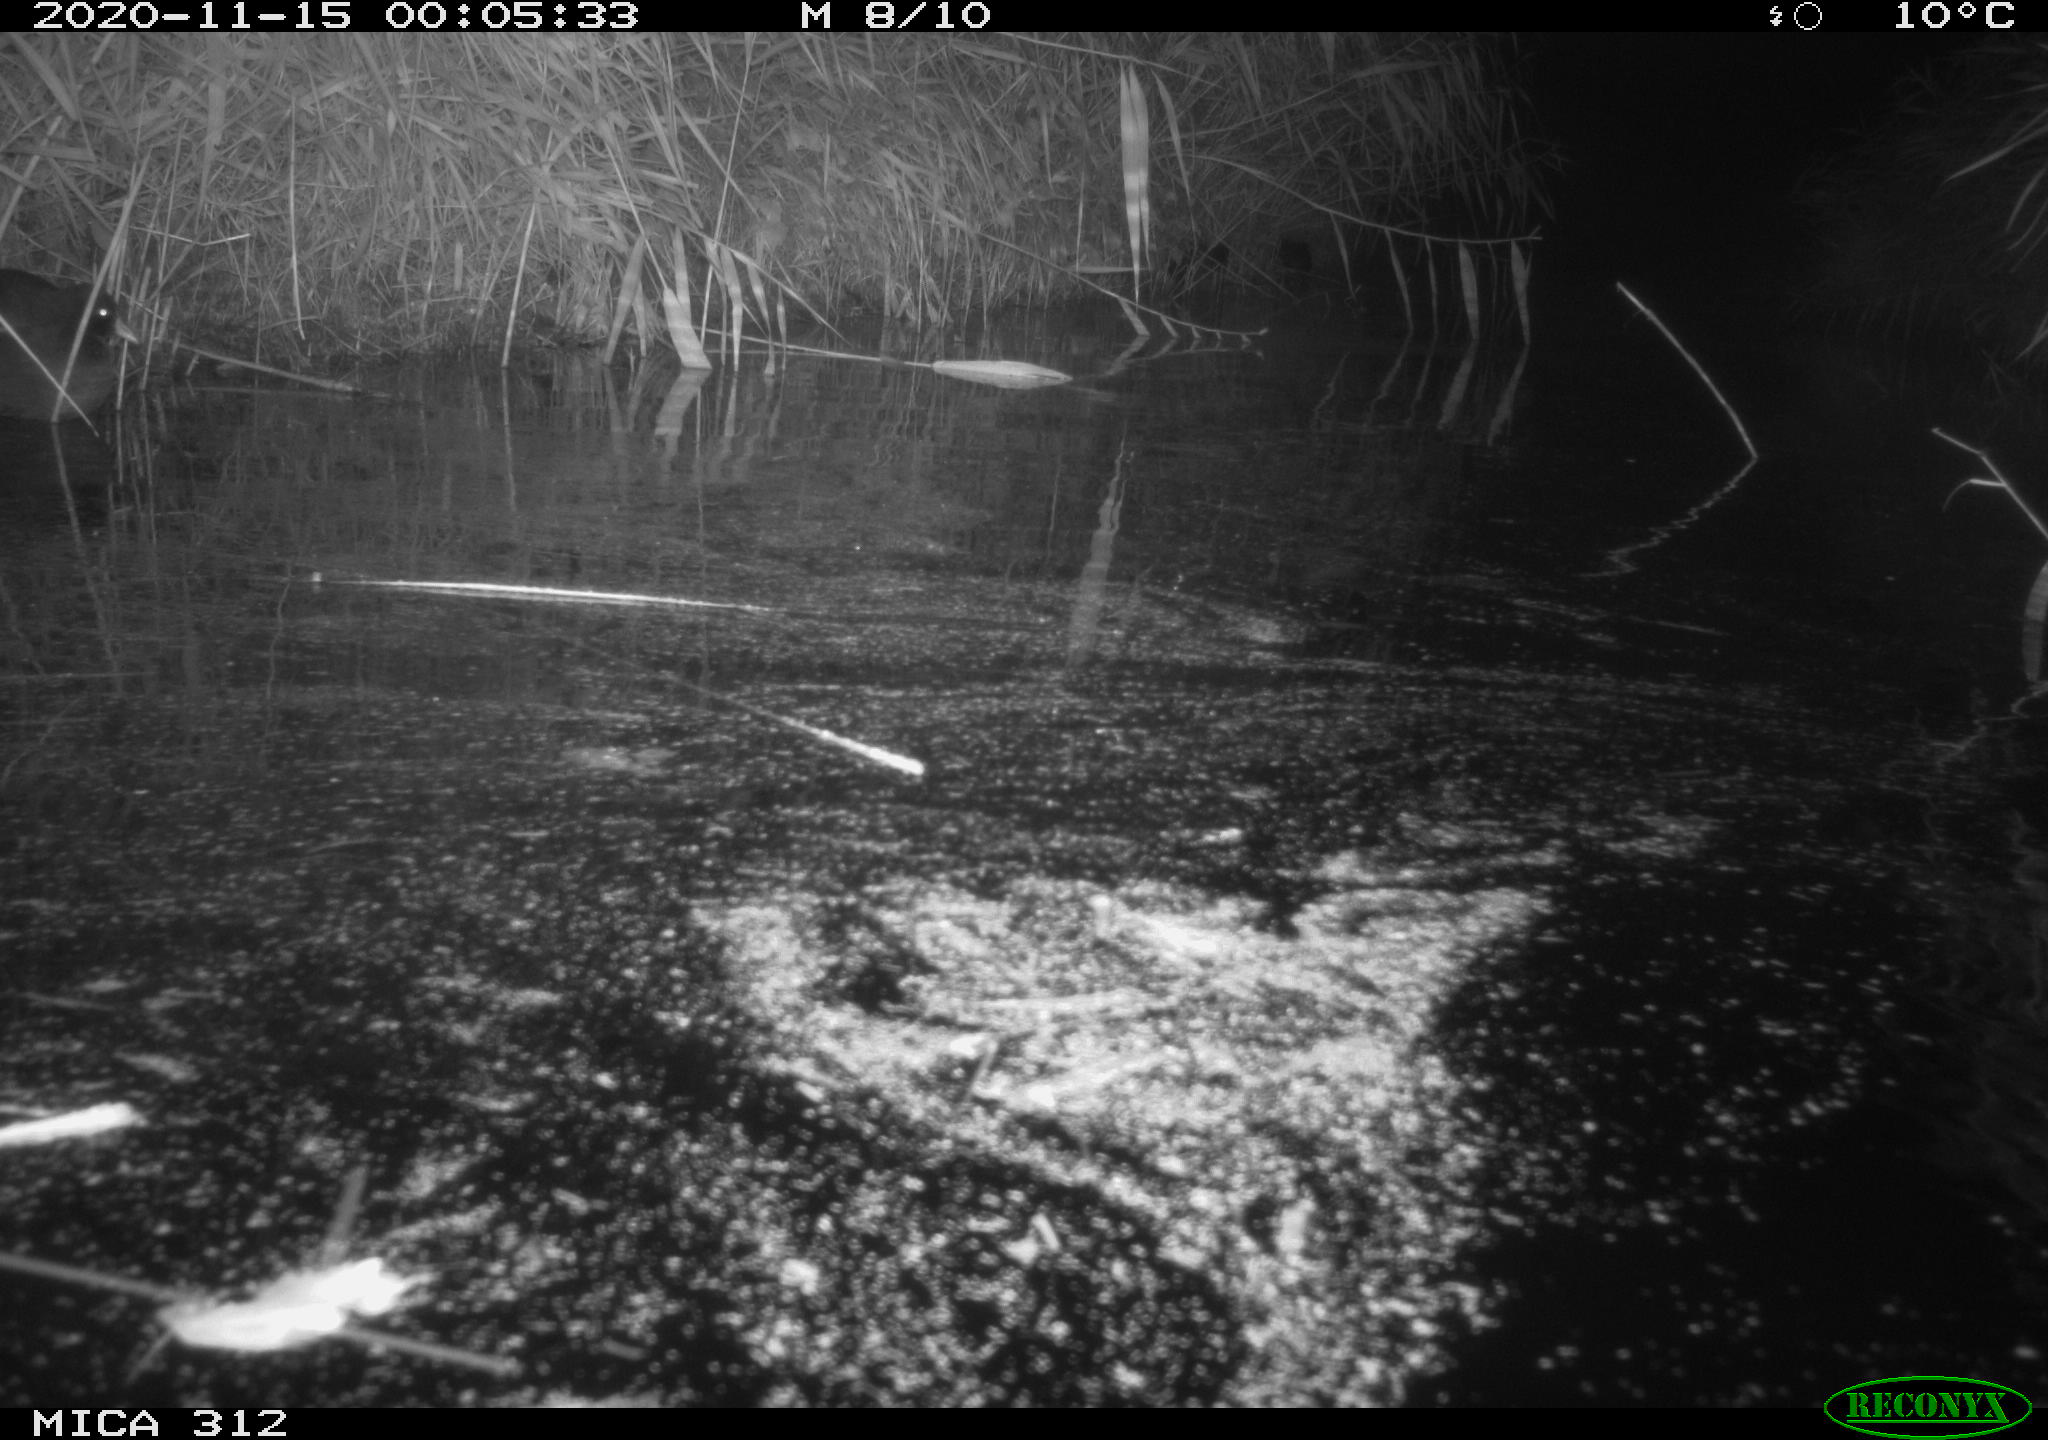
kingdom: Animalia
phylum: Chordata
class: Mammalia
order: Rodentia
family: Muridae
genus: Rattus
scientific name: Rattus norvegicus
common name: Brown rat
